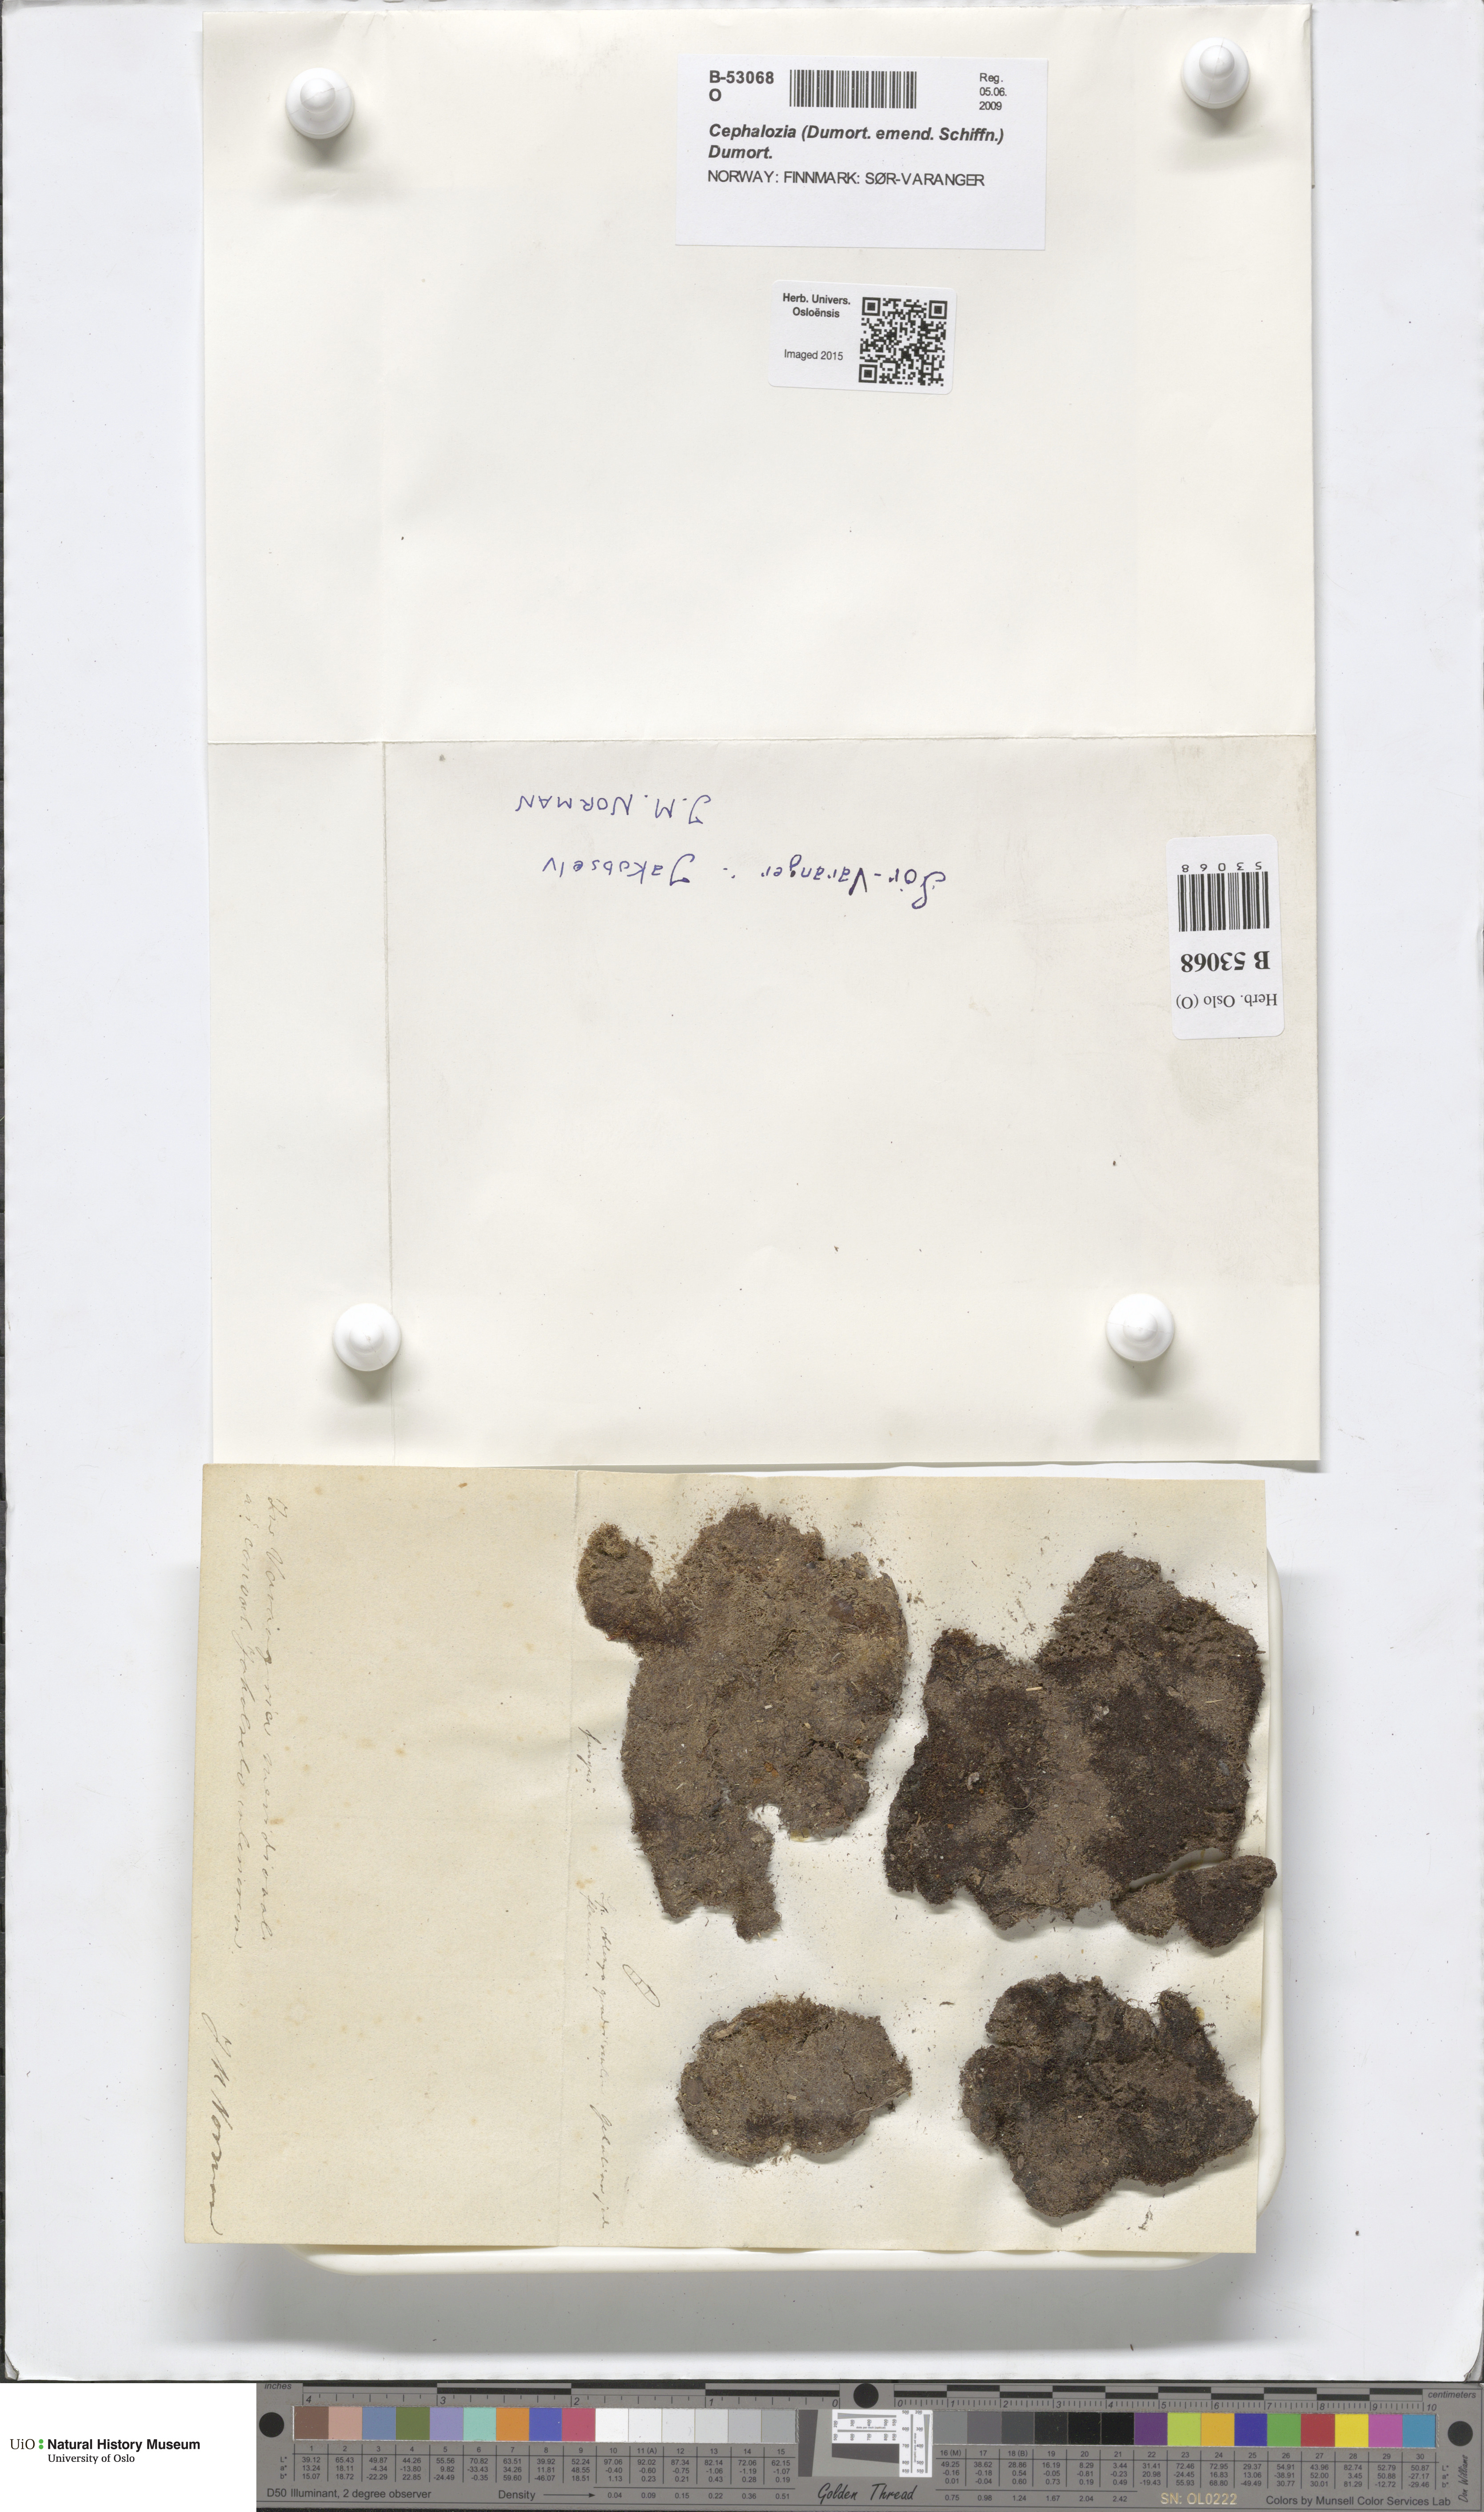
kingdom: Plantae
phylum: Marchantiophyta
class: Jungermanniopsida
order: Jungermanniales
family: Cephaloziaceae
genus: Cephalozia
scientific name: Cephalozia
